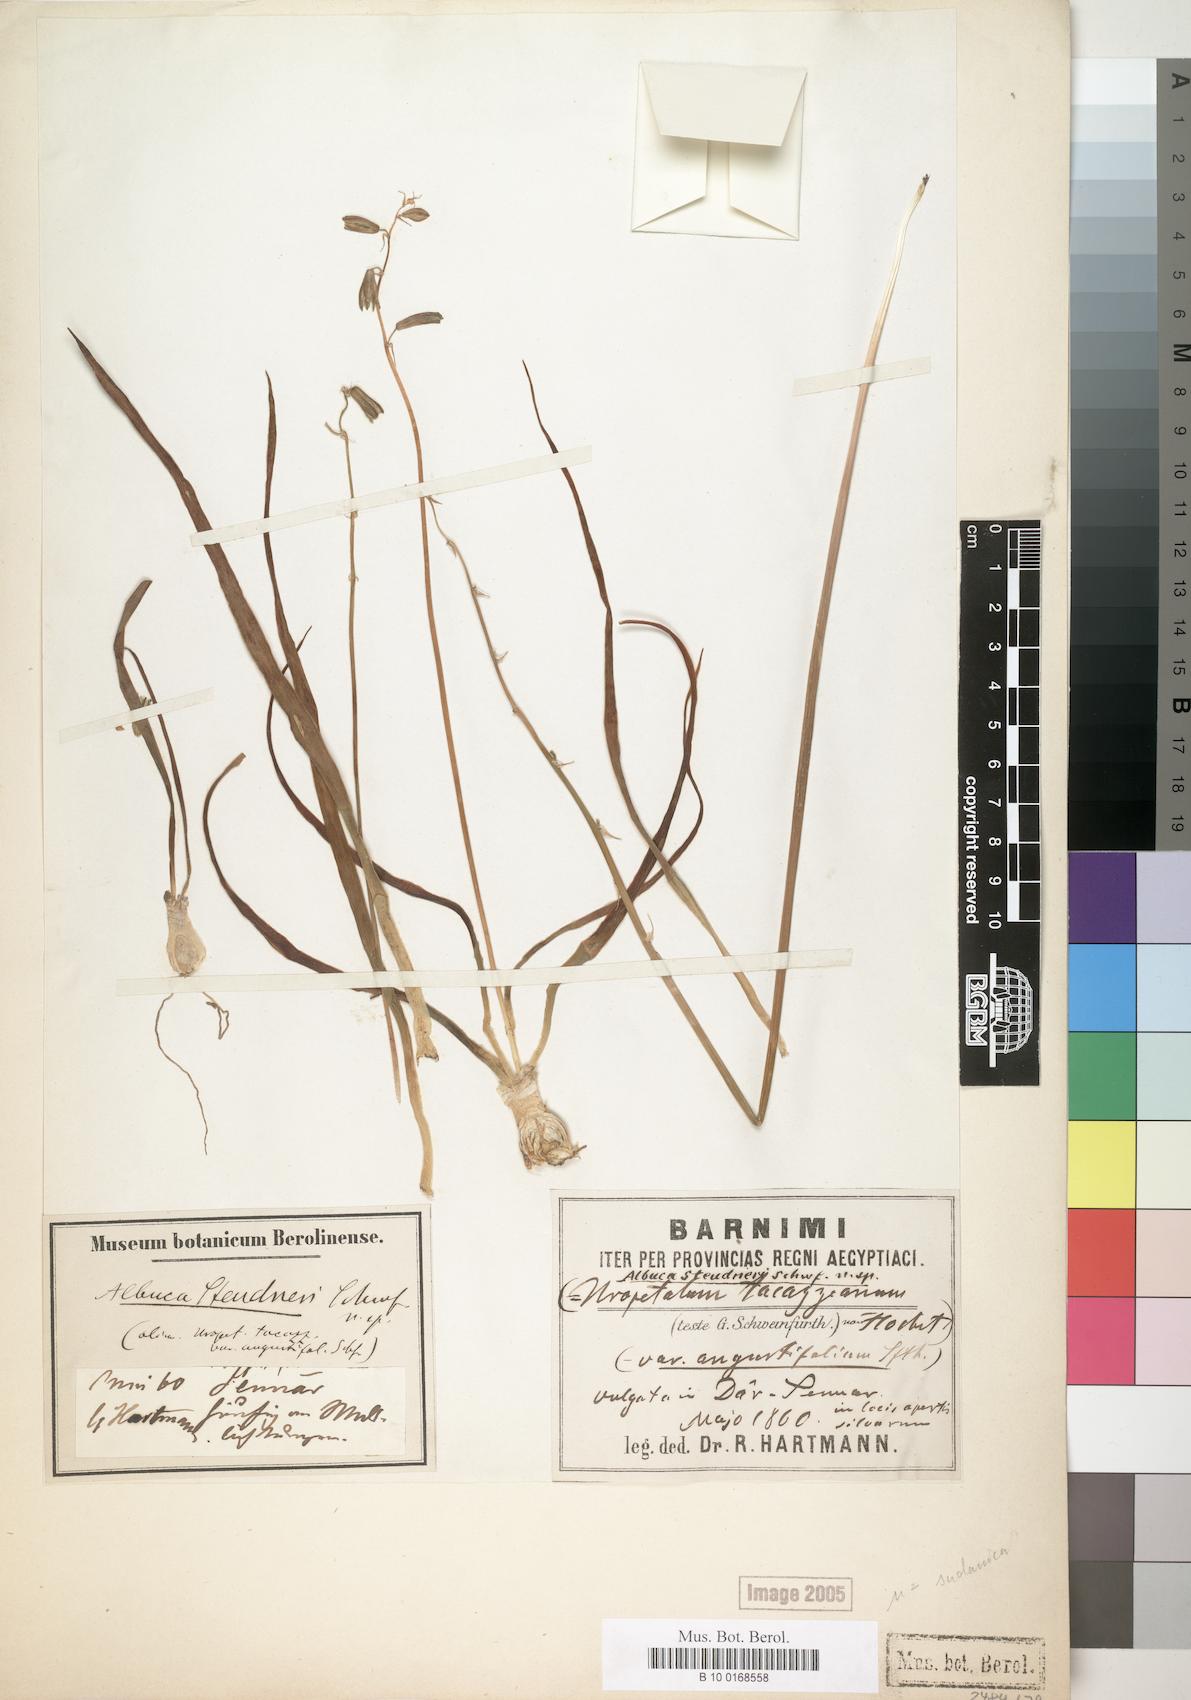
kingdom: Plantae
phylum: Tracheophyta
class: Liliopsida
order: Asparagales
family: Asparagaceae
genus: Albuca
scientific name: Albuca steudneri
